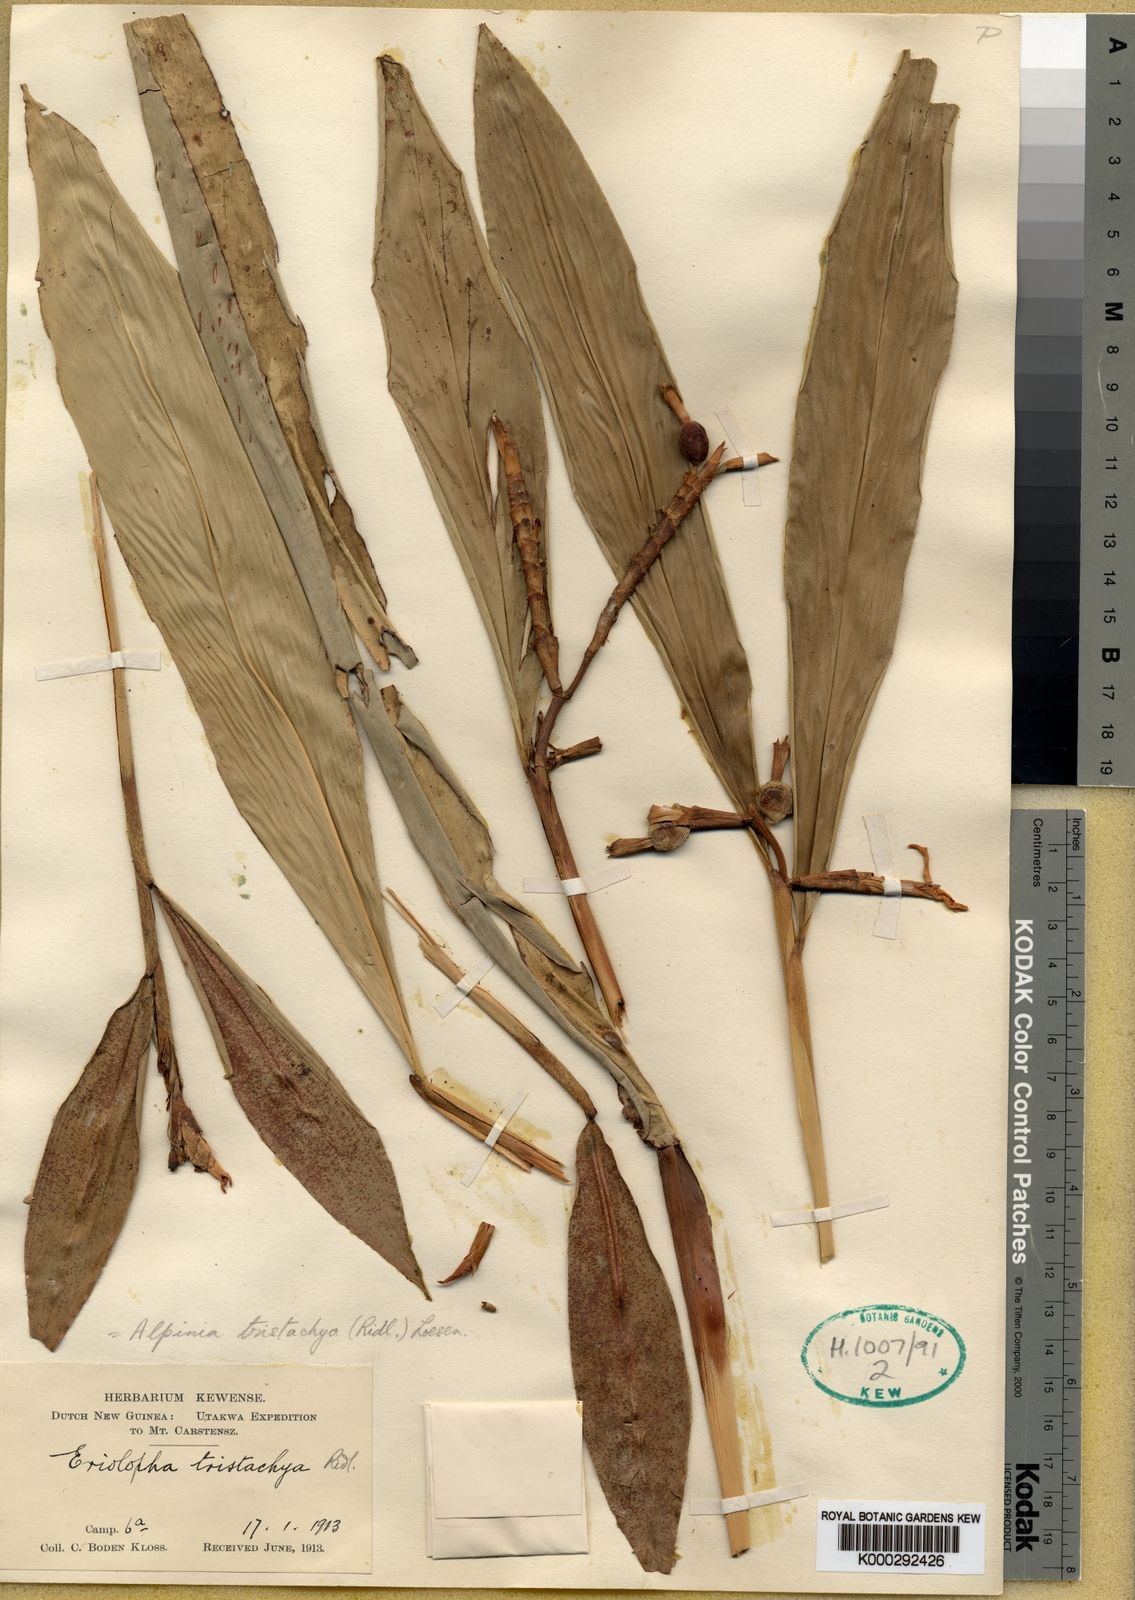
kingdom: Plantae
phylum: Tracheophyta
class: Liliopsida
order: Zingiberales
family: Zingiberaceae
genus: Alpinia
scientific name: Alpinia tristachya
